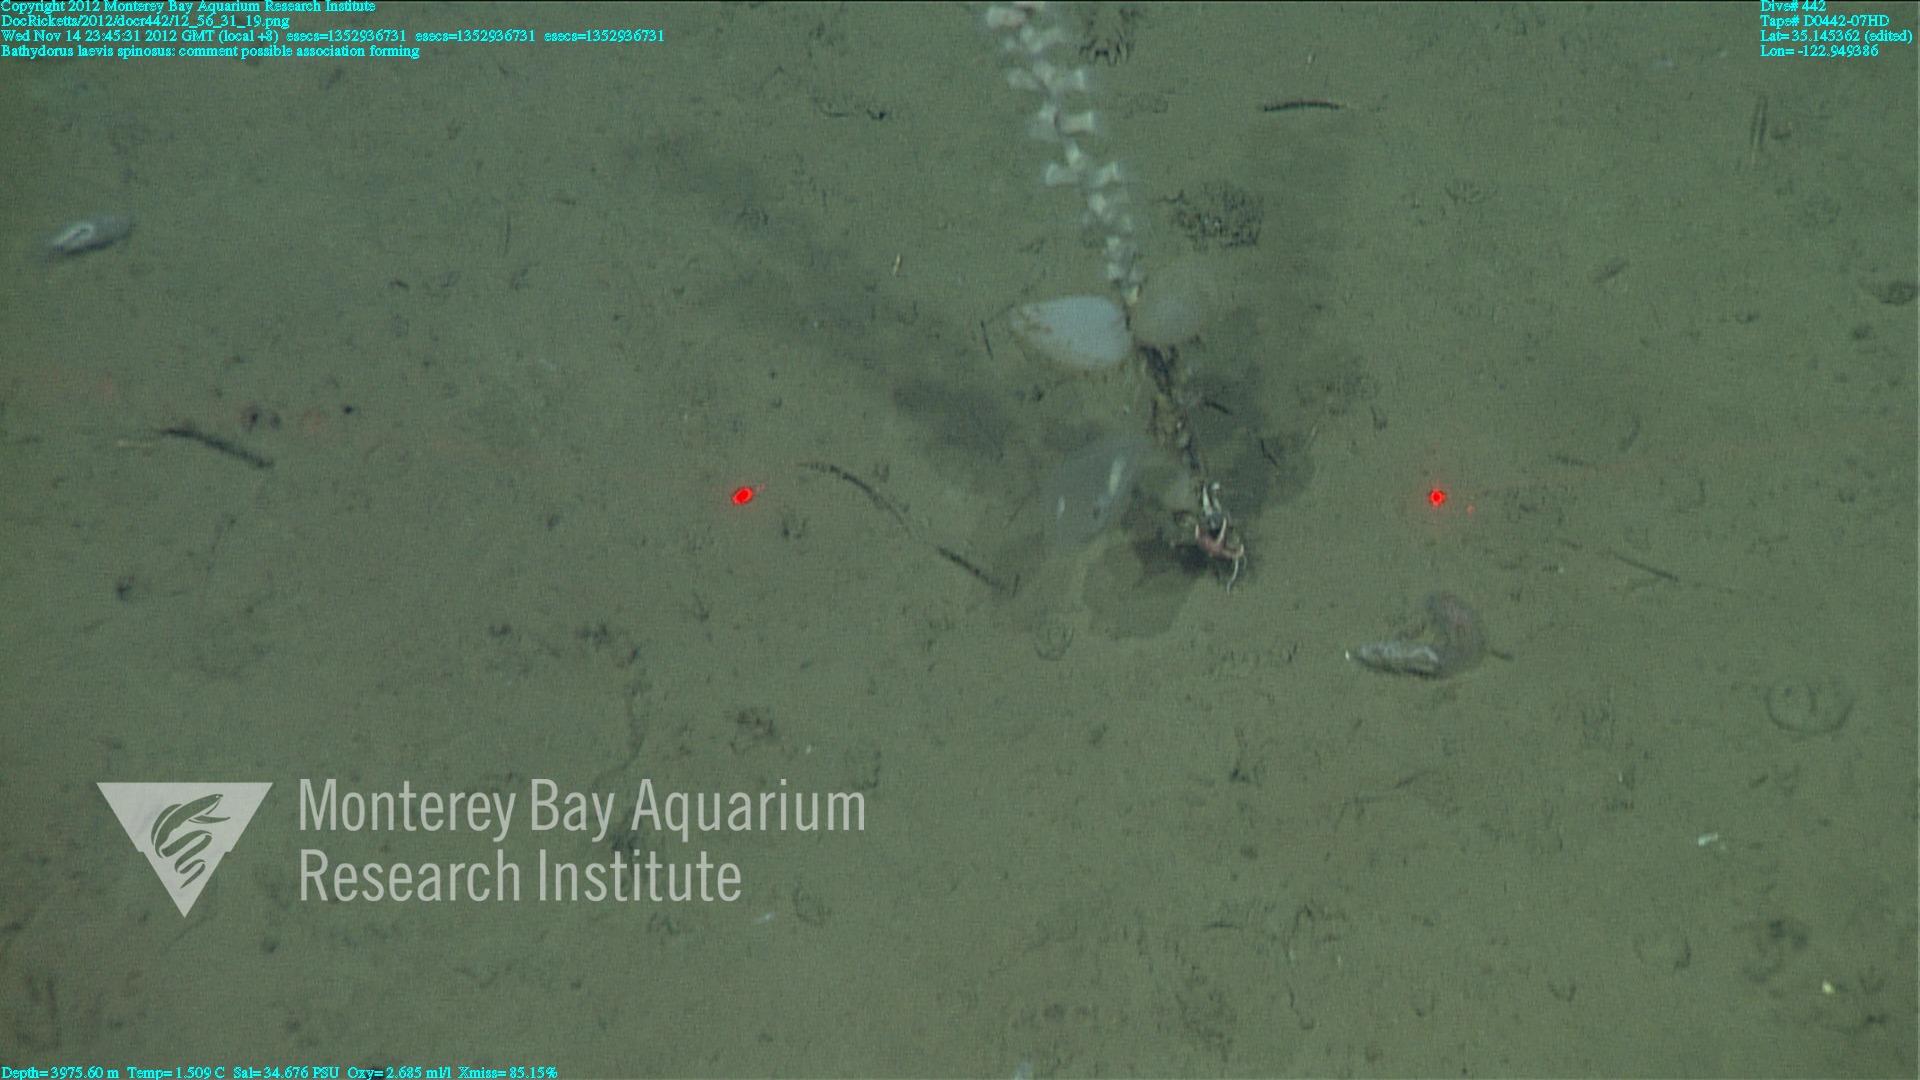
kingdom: Animalia
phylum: Porifera
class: Hexactinellida
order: Lyssacinosida
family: Rossellidae
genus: Bathydorus
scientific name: Bathydorus spinosus
